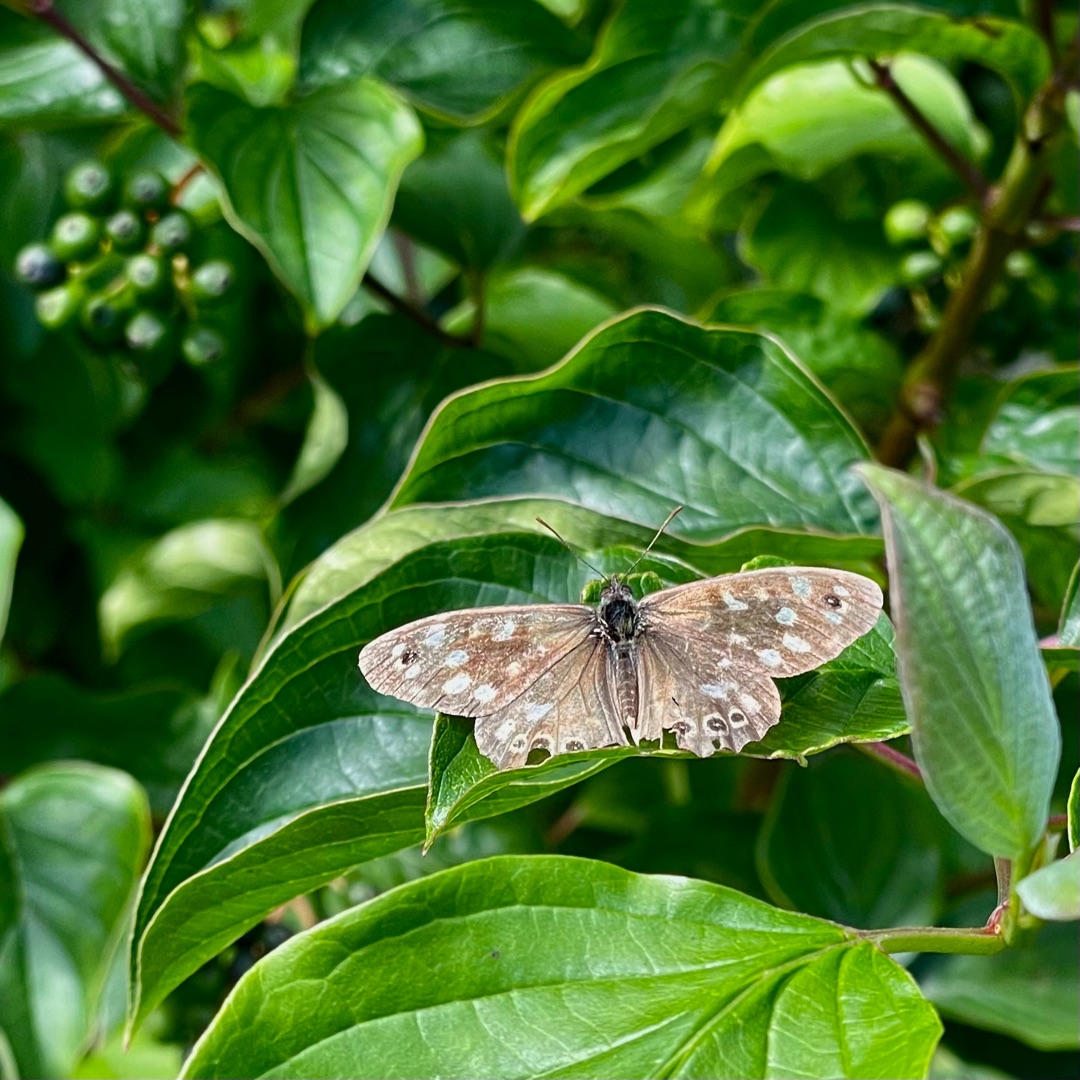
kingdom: Animalia
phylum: Arthropoda
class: Insecta
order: Lepidoptera
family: Nymphalidae
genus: Pararge
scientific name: Pararge aegeria
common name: Skovrandøje
